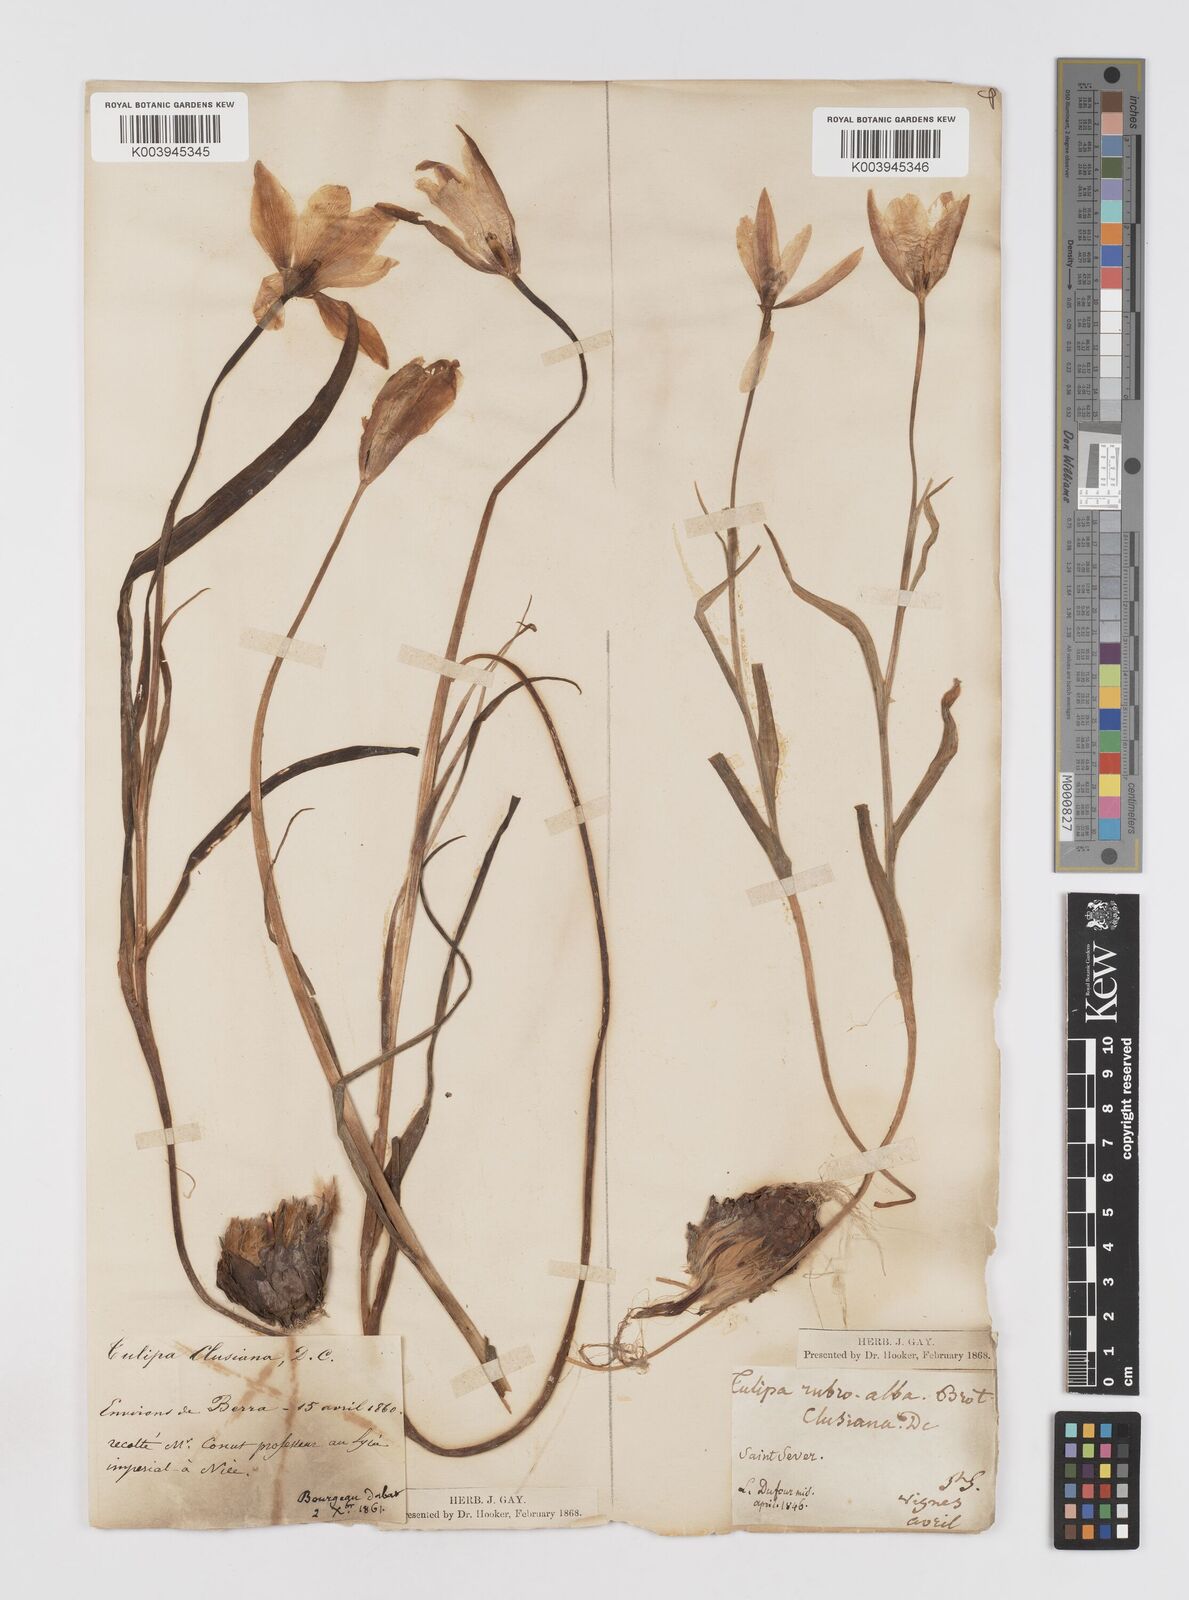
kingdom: Plantae
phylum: Tracheophyta
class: Liliopsida
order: Liliales
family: Liliaceae
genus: Tulipa
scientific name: Tulipa clusiana
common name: Lady tulip
